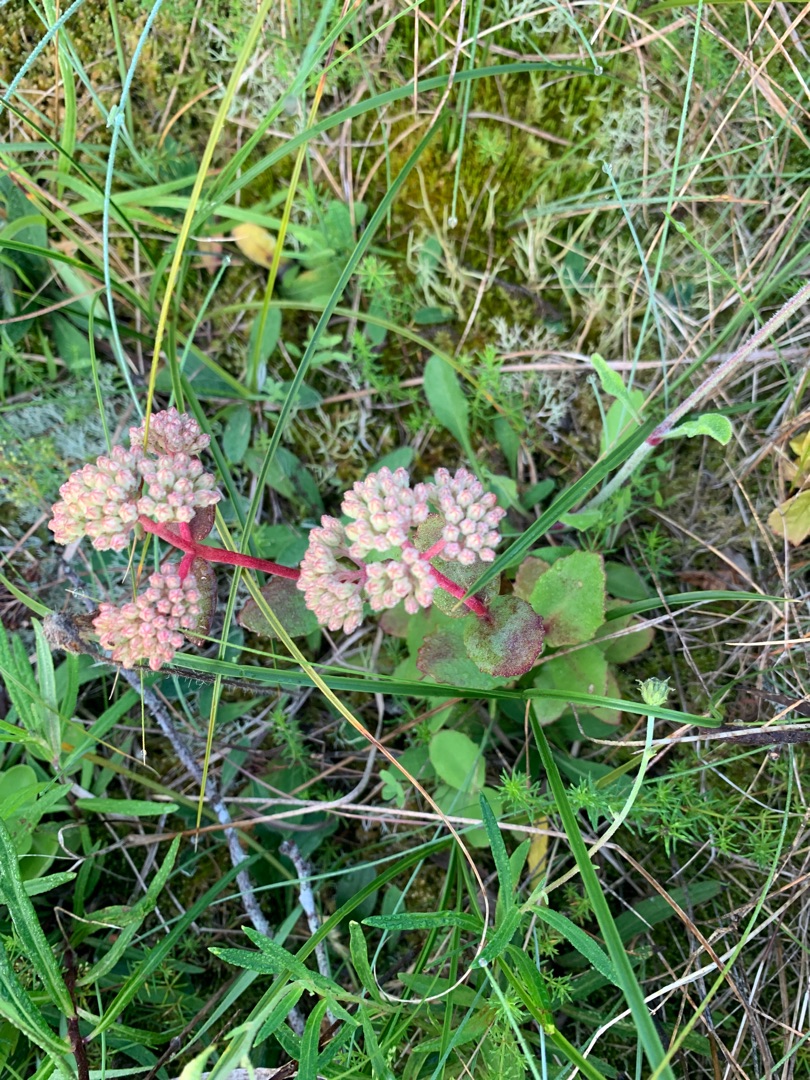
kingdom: Plantae
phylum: Tracheophyta
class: Magnoliopsida
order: Saxifragales
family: Crassulaceae
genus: Hylotelephium
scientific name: Hylotelephium telephium
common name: Sankthansurt
